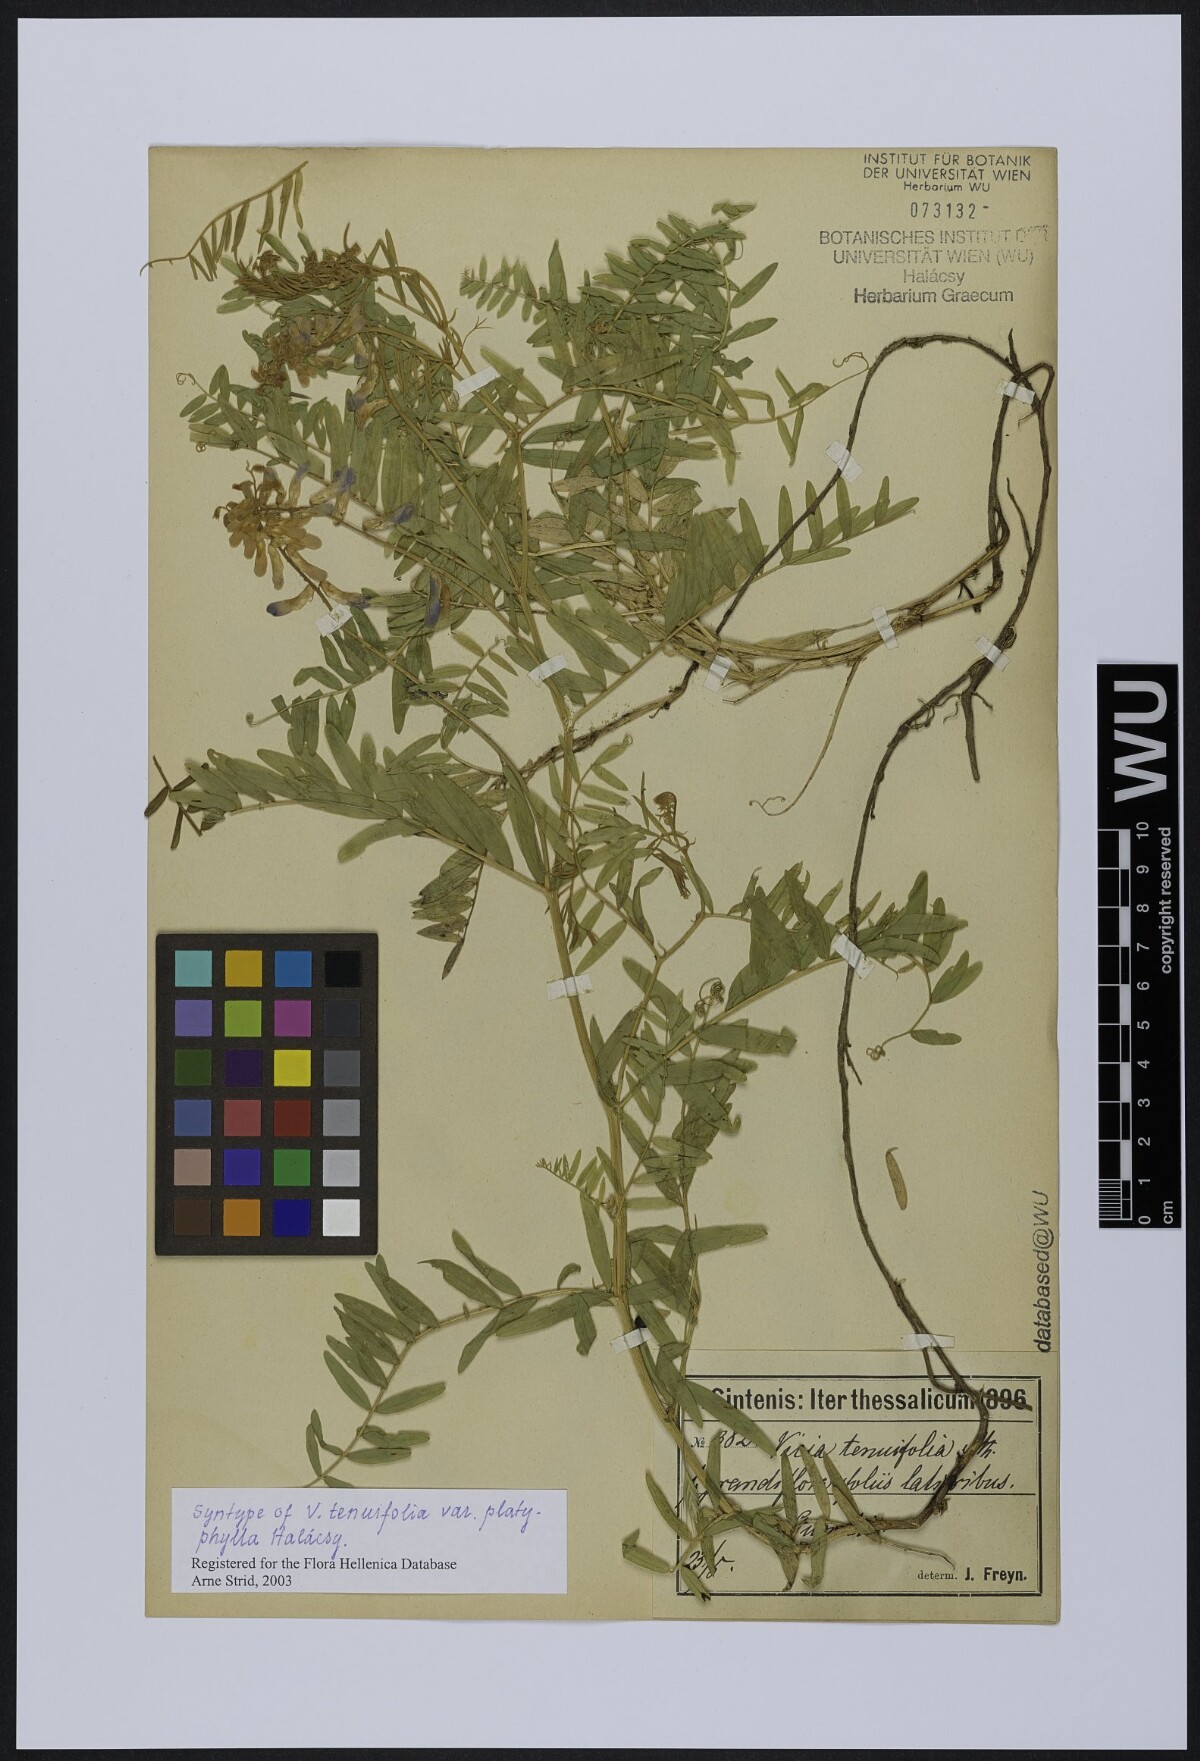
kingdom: Plantae
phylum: Tracheophyta
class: Magnoliopsida
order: Fabales
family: Fabaceae
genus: Vicia
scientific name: Vicia tenuifolia
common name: Fine-leaved vetch
